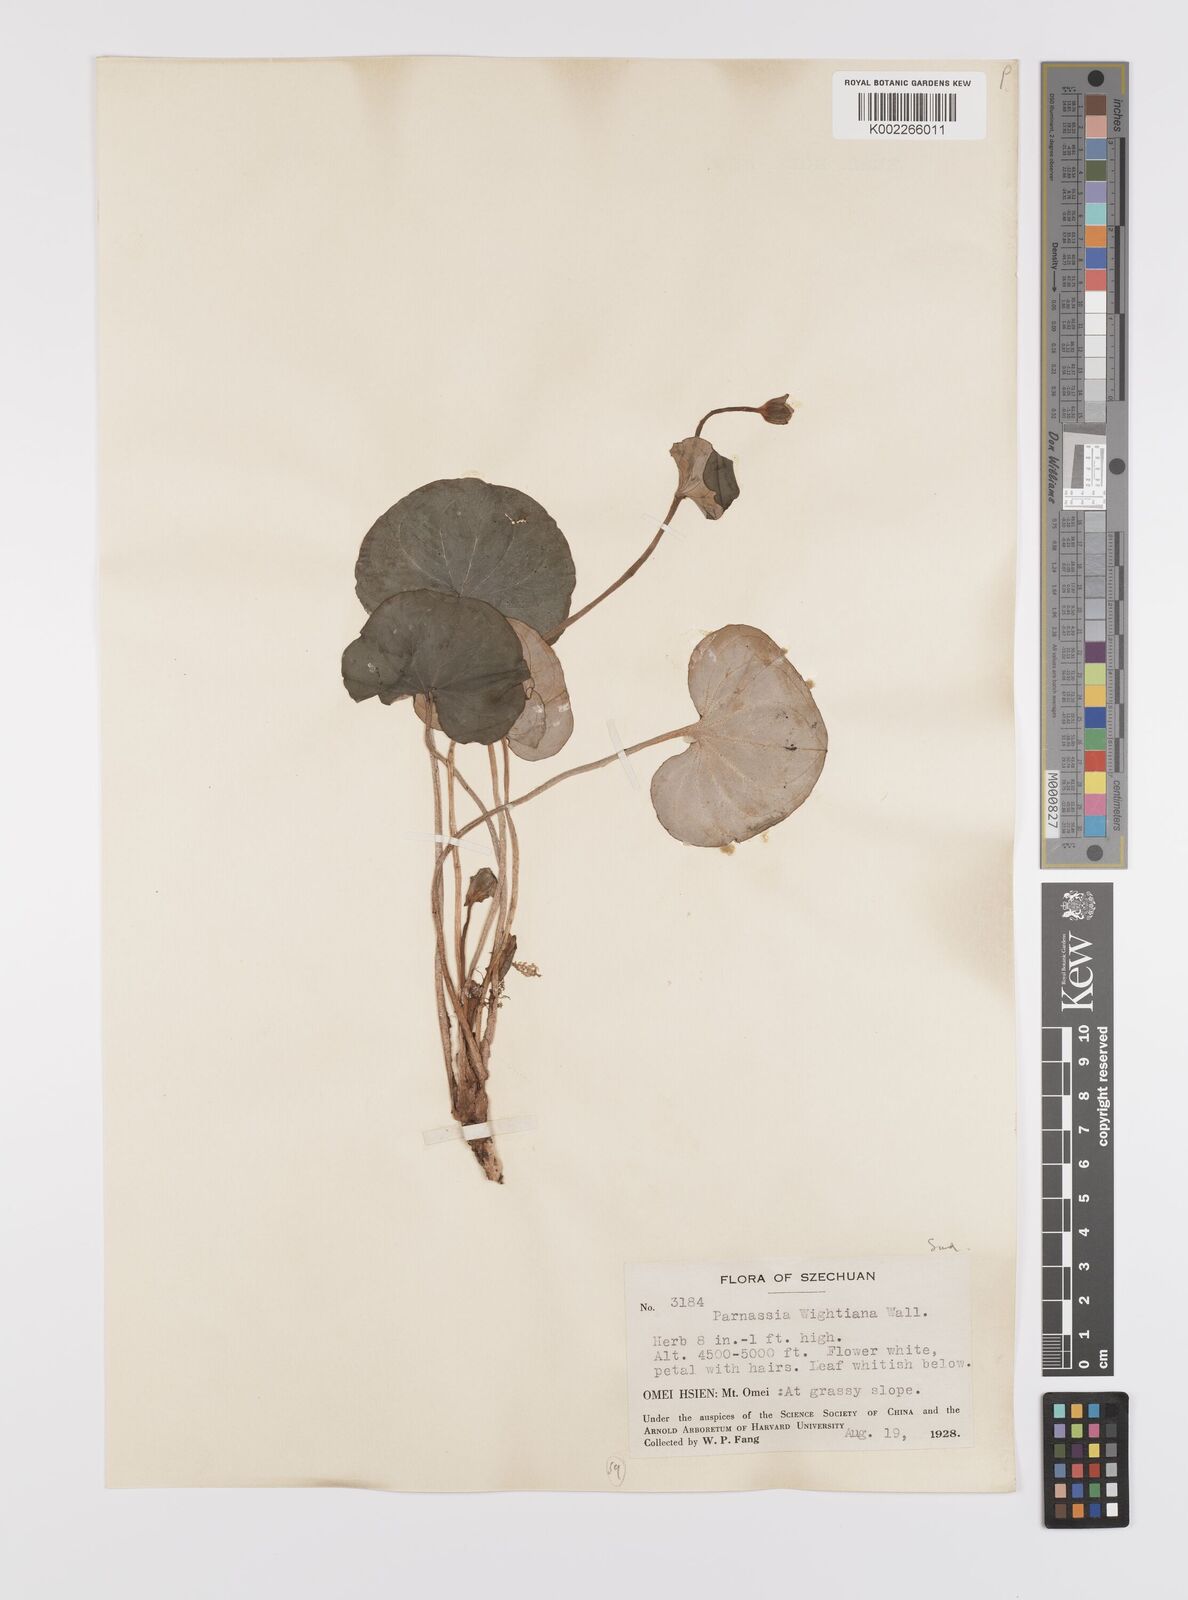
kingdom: Plantae
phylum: Tracheophyta
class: Magnoliopsida
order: Celastrales
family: Parnassiaceae
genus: Parnassia
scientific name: Parnassia wightiana
